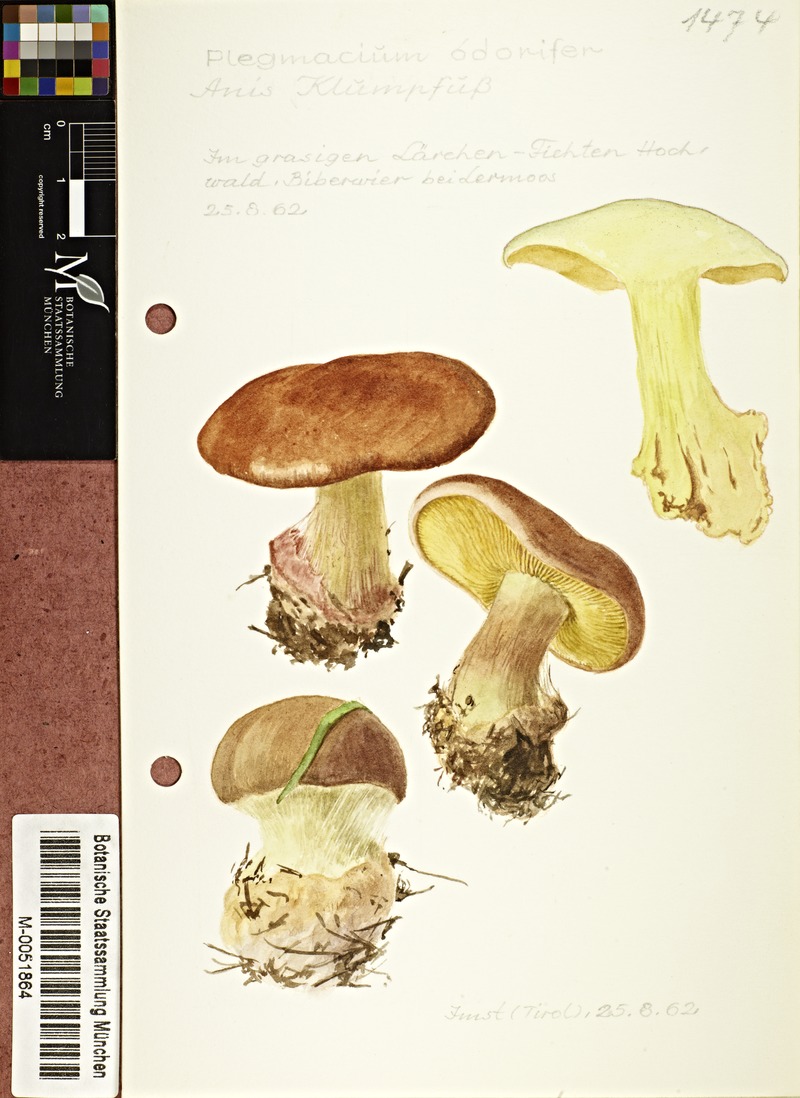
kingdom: Fungi
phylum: Basidiomycota
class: Agaricomycetes
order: Agaricales
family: Cortinariaceae
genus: Calonarius
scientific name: Calonarius odorifer
